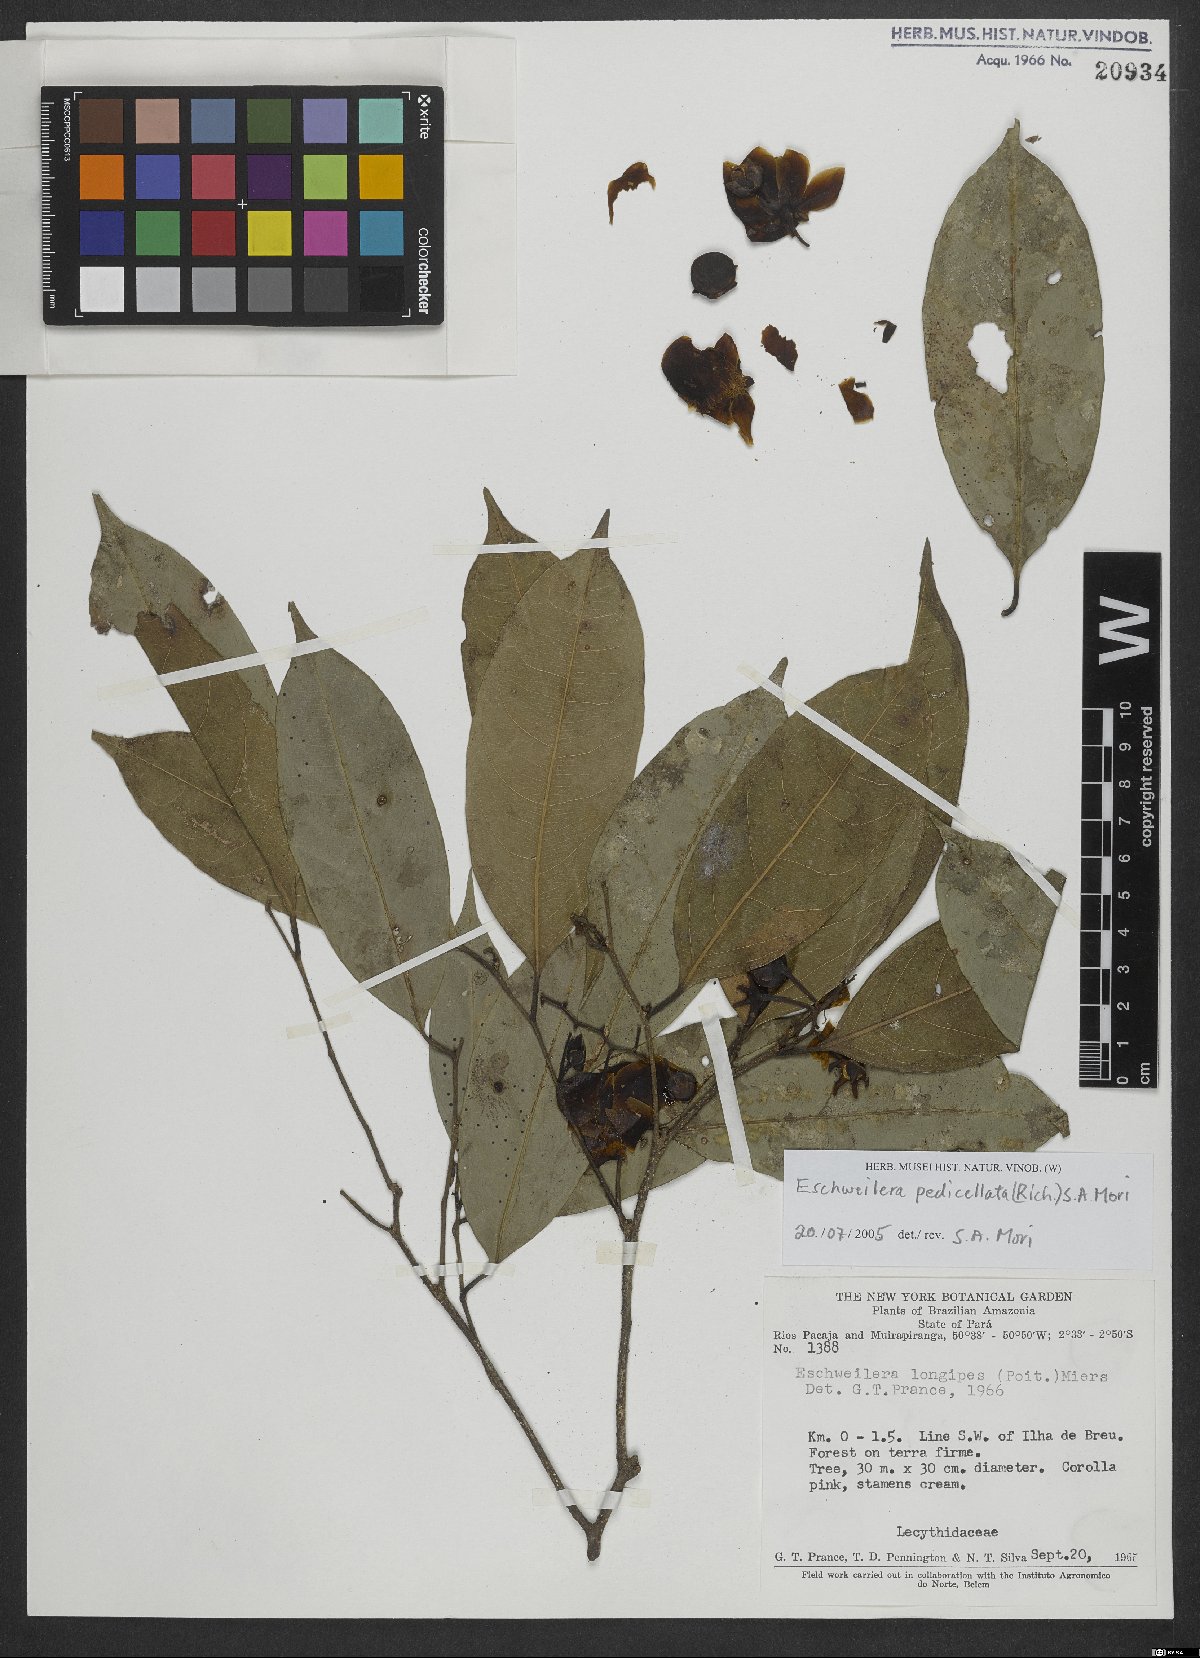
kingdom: Plantae
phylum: Tracheophyta
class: Magnoliopsida
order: Ericales
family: Lecythidaceae
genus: Eschweilera
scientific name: Eschweilera pedicellata
